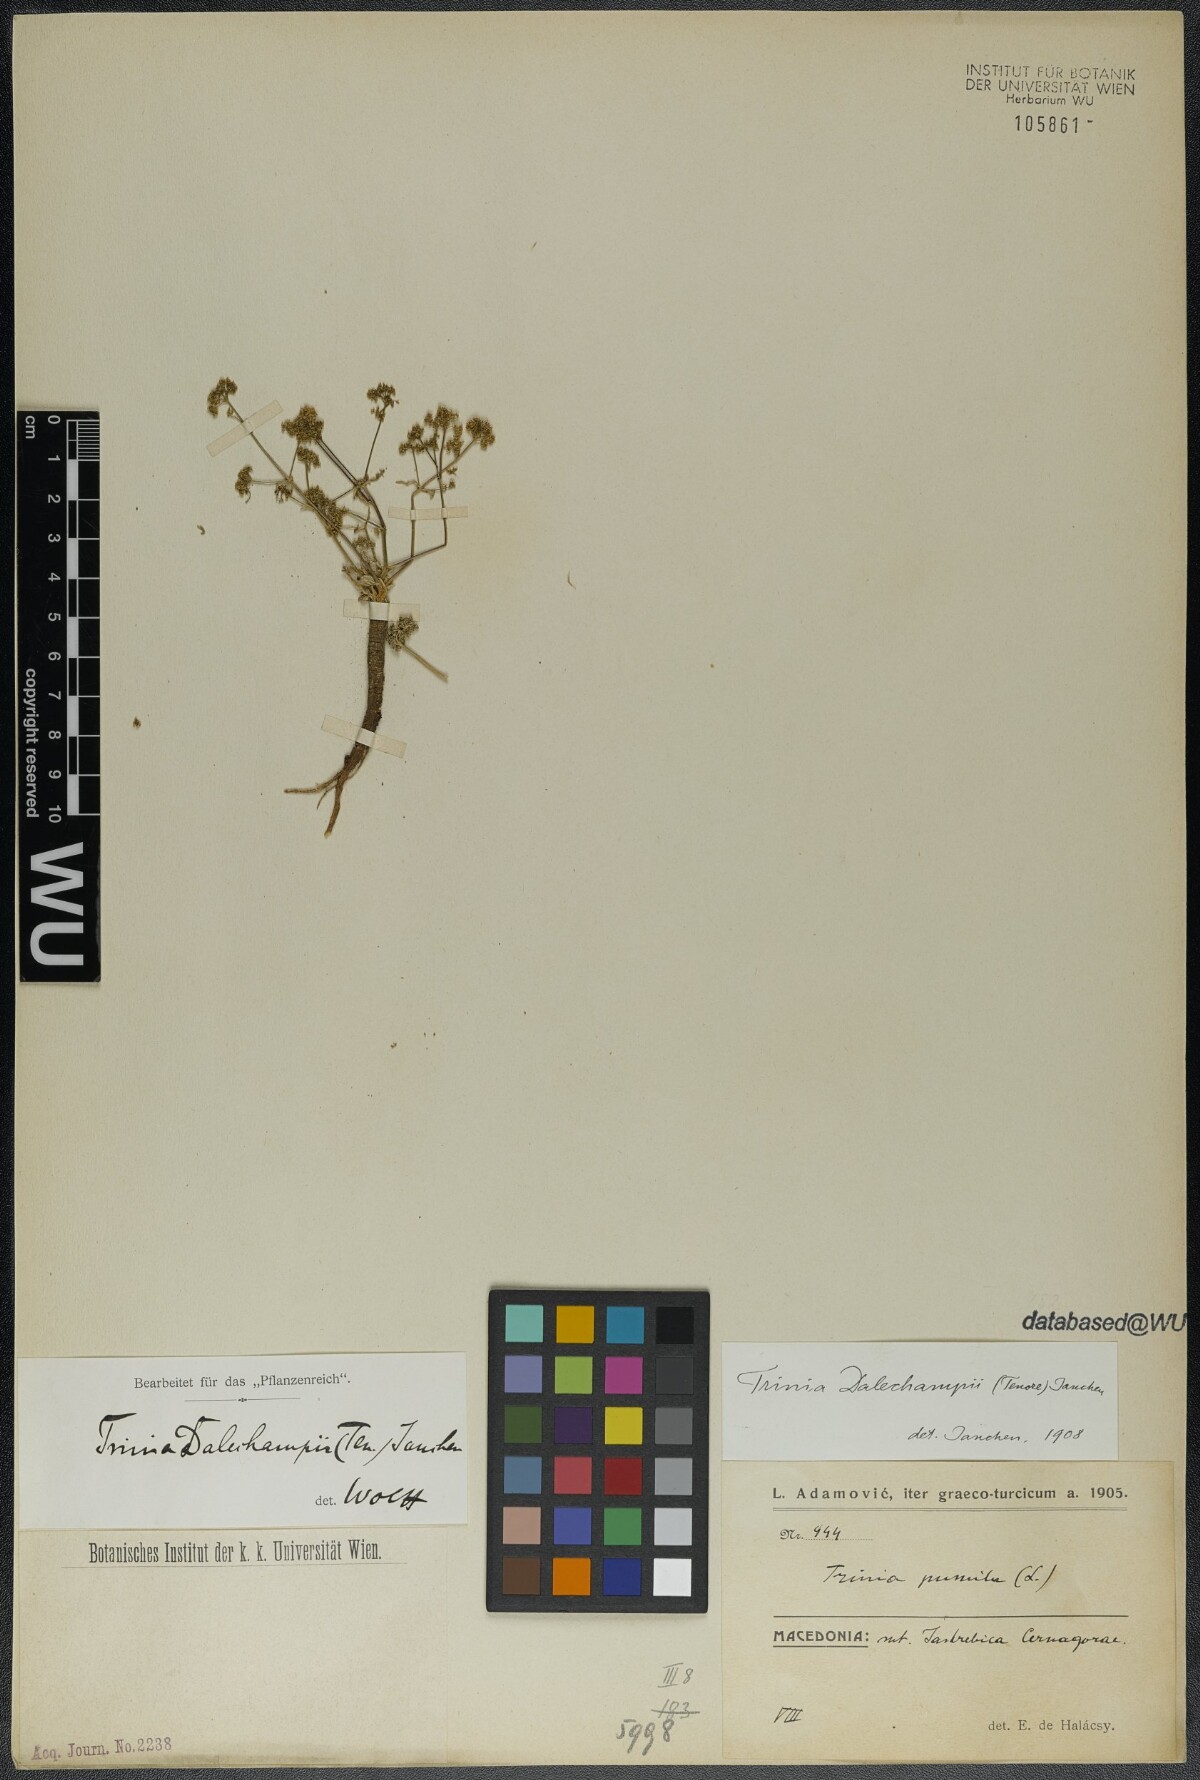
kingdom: Plantae
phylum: Tracheophyta
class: Magnoliopsida
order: Apiales
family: Apiaceae
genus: Trinia
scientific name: Trinia dalechampii
